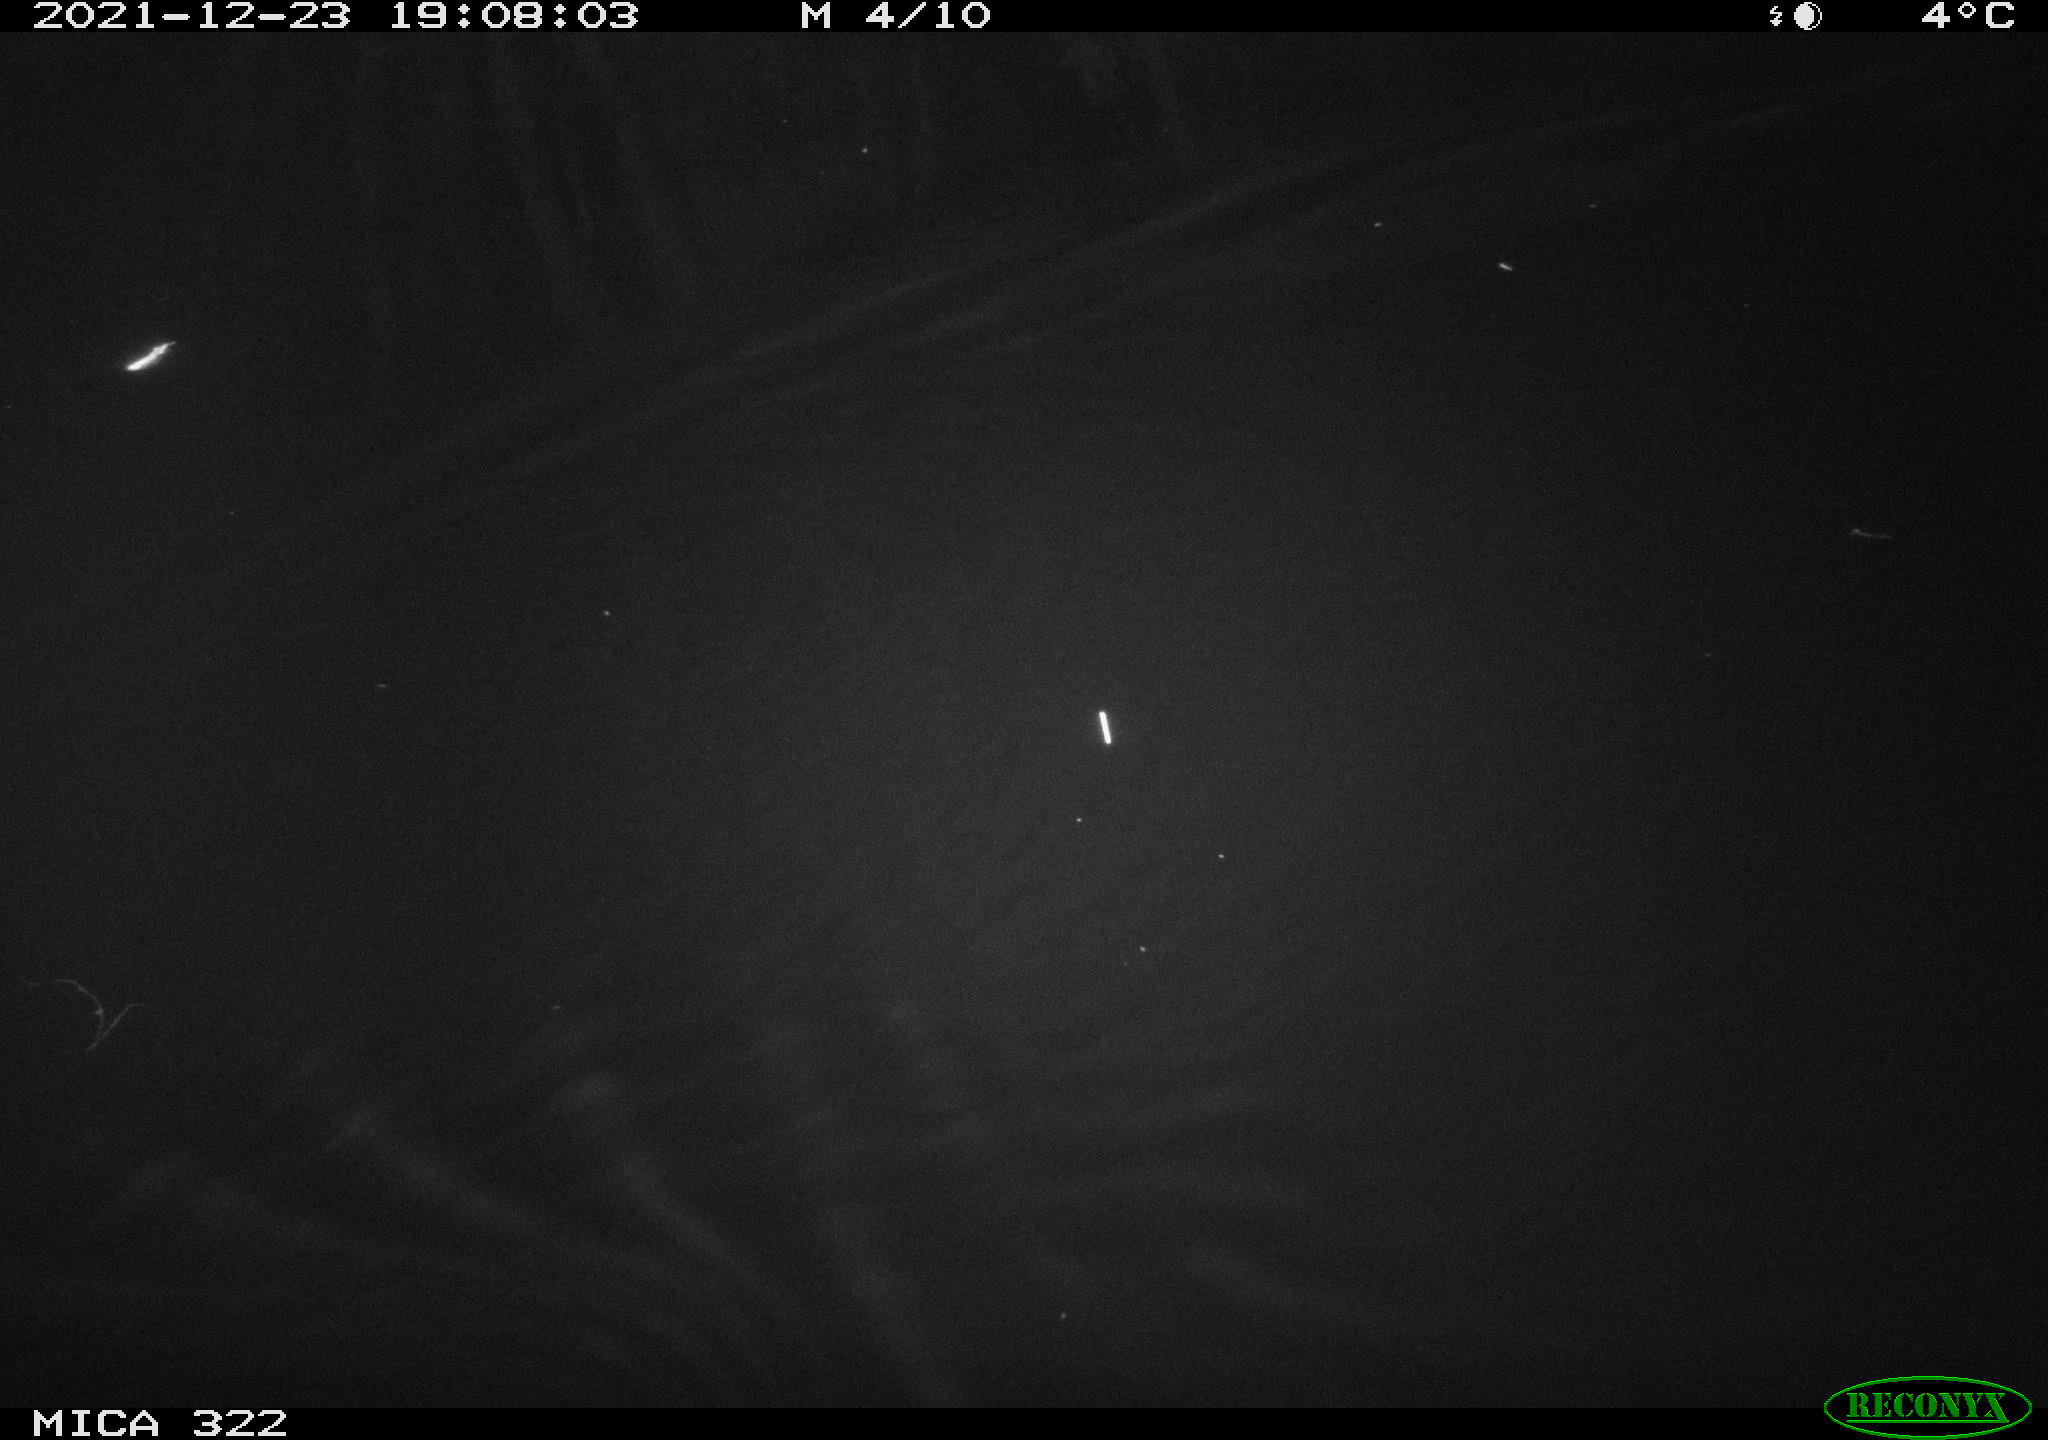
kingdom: Animalia
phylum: Chordata
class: Mammalia
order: Rodentia
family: Muridae
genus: Rattus
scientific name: Rattus norvegicus
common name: Brown rat
